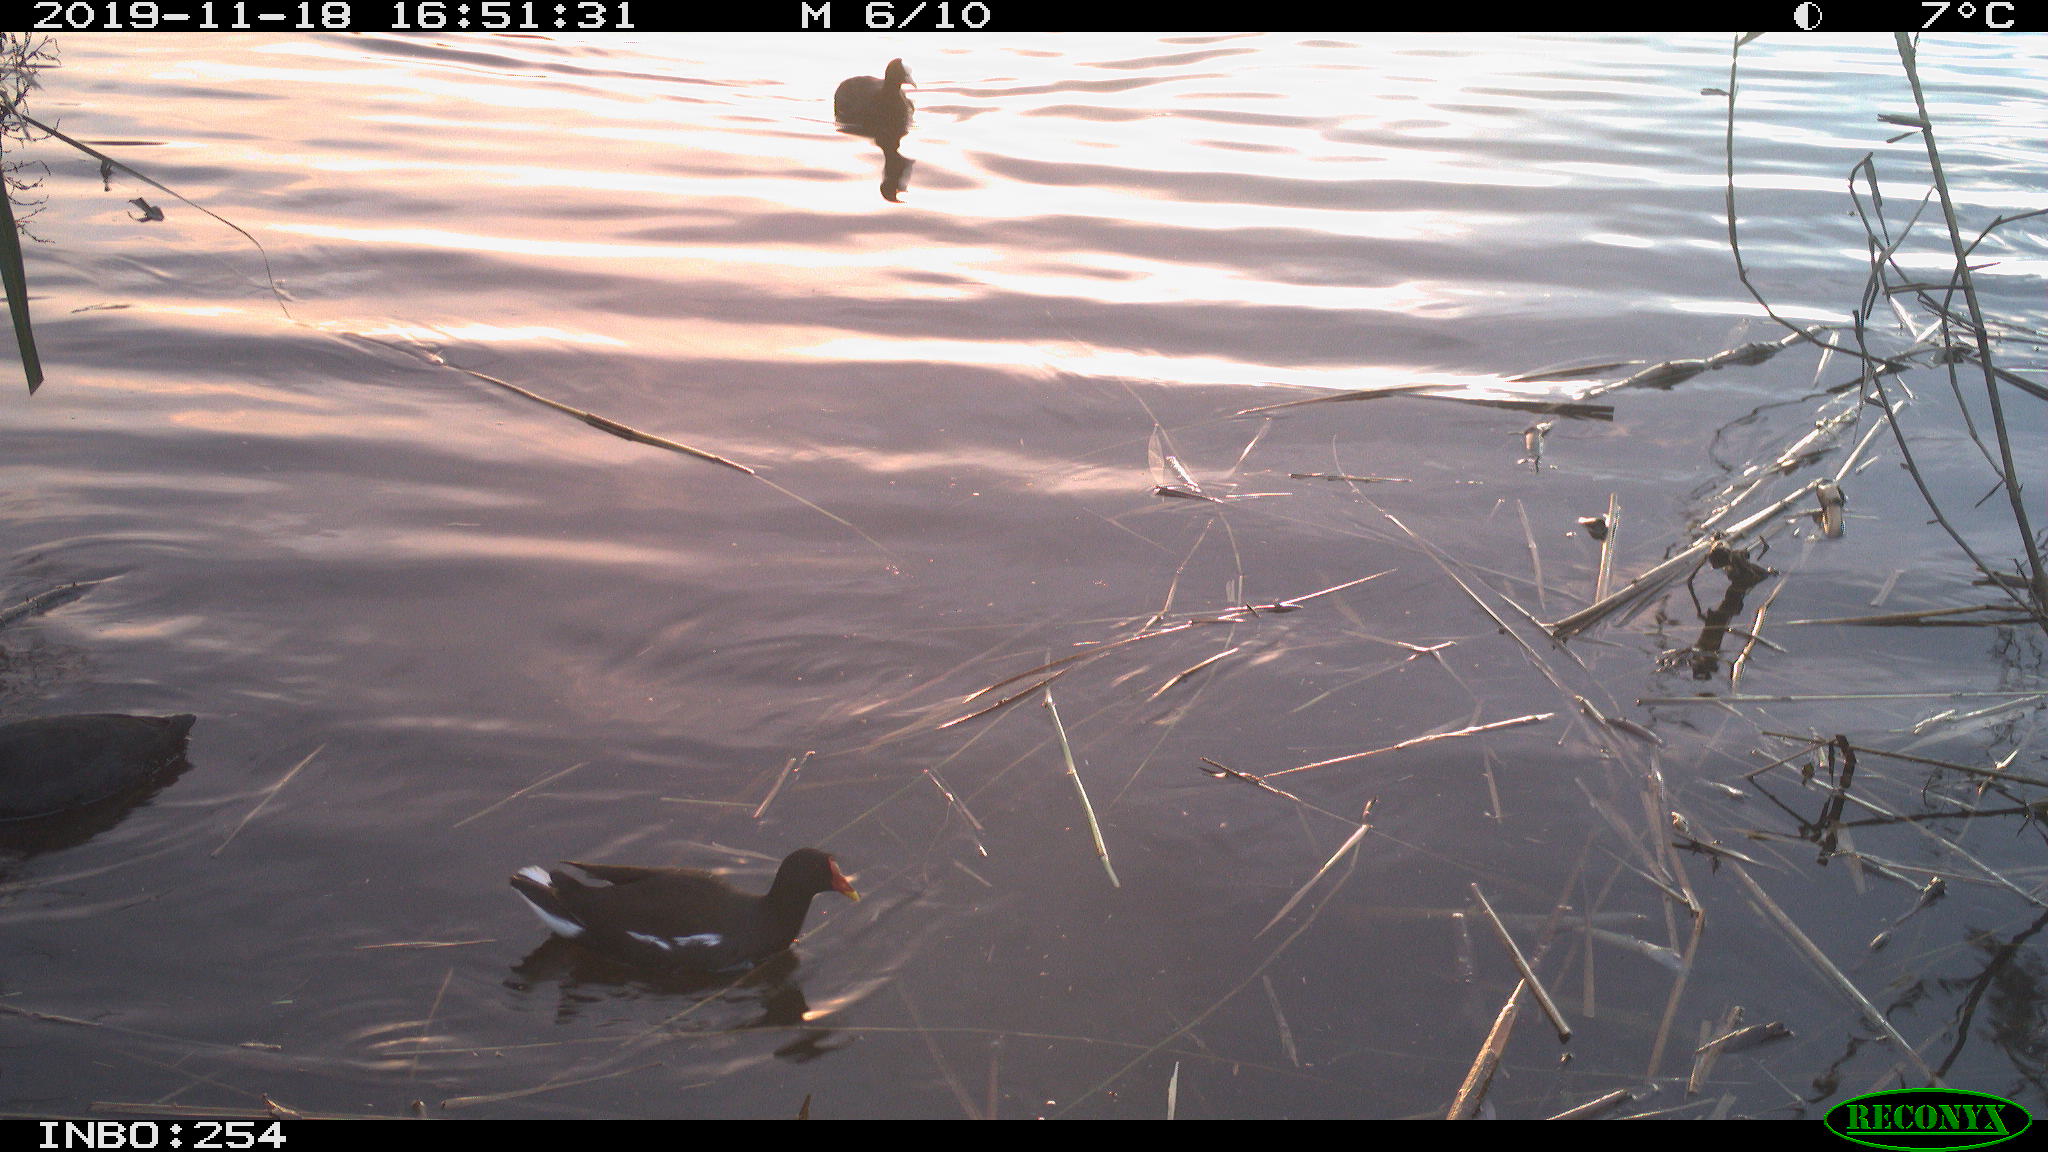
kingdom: Animalia
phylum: Chordata
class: Aves
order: Gruiformes
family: Rallidae
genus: Fulica
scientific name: Fulica atra
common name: Eurasian coot
